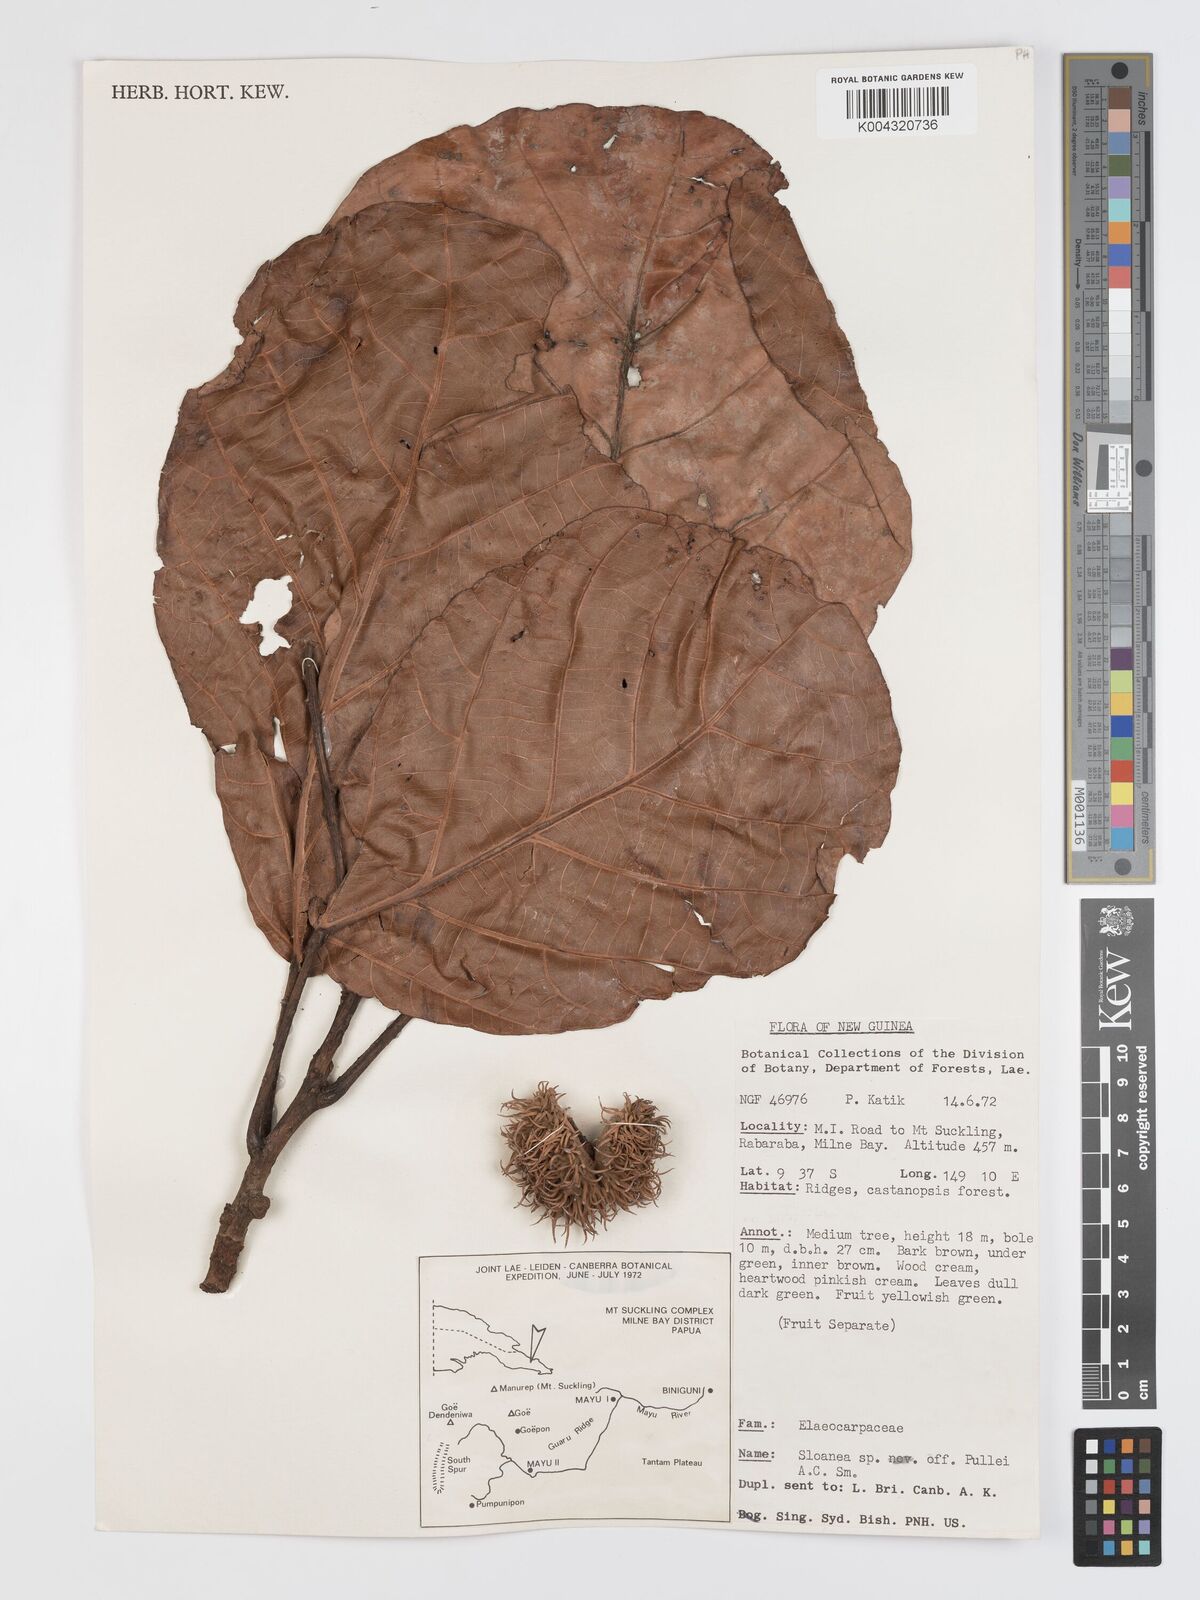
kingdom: Plantae
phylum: Tracheophyta
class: Magnoliopsida
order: Oxalidales
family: Elaeocarpaceae
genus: Sloanea
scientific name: Sloanea pullei
